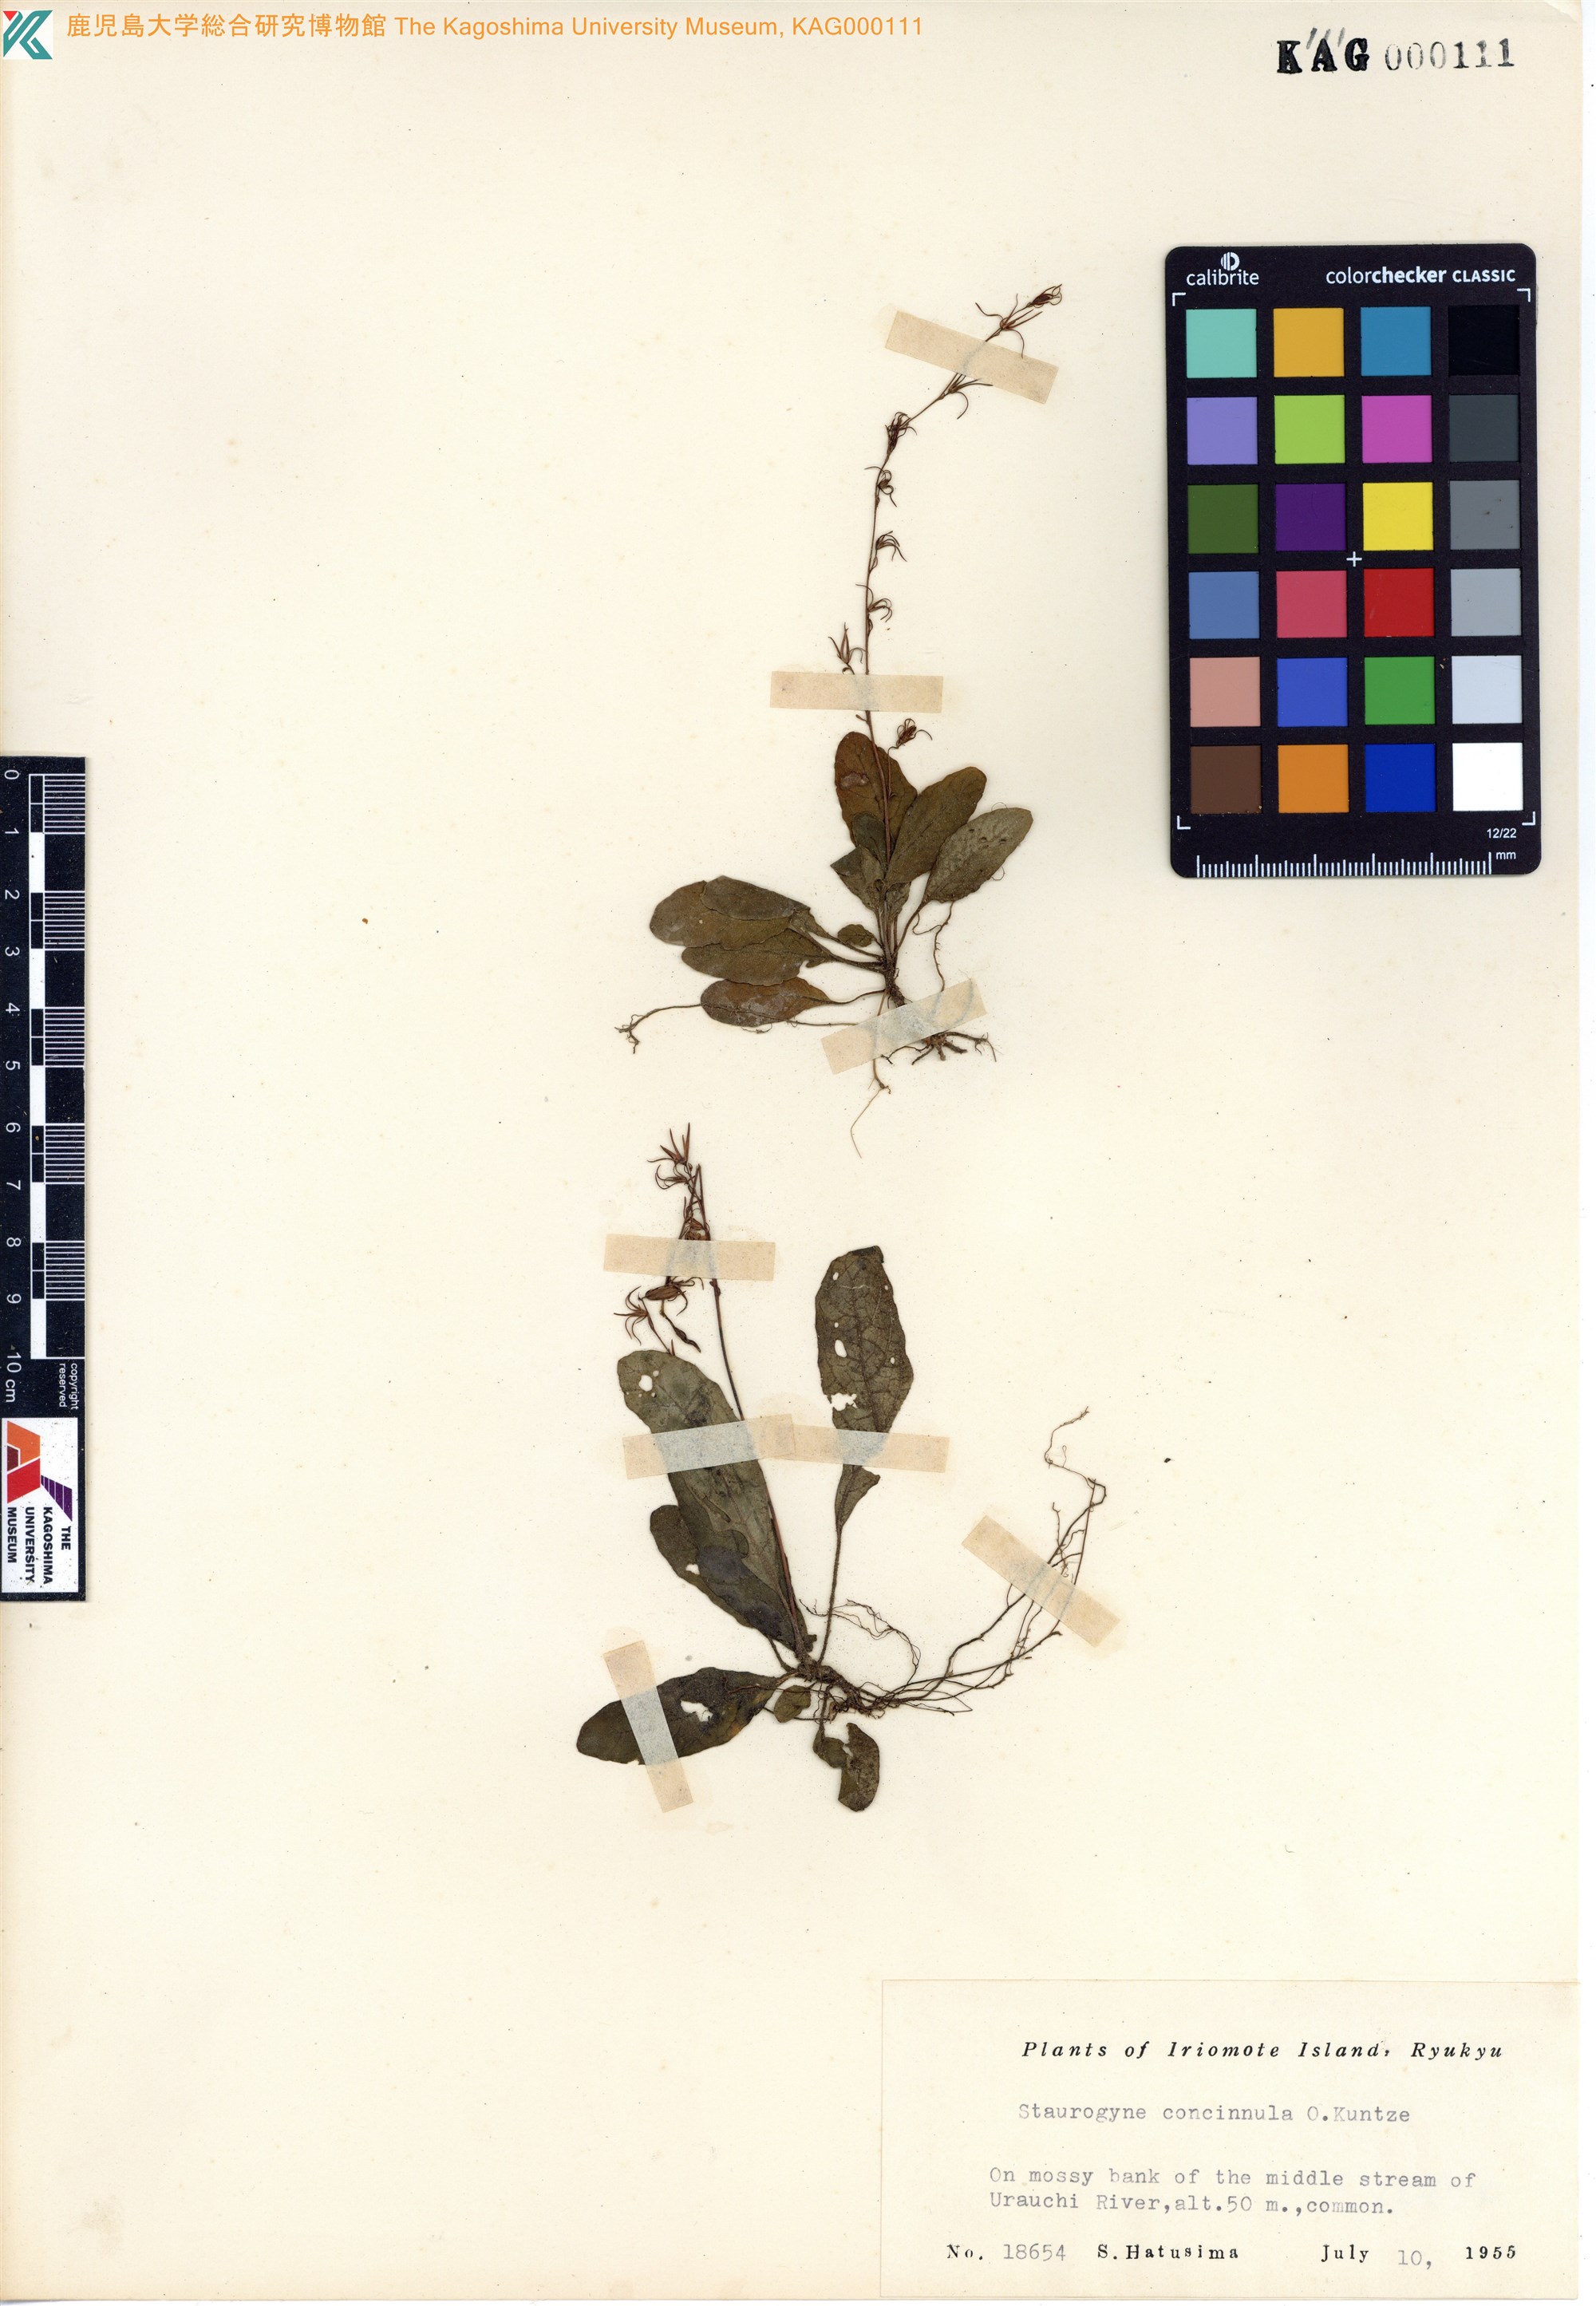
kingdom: Plantae
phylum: Tracheophyta
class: Magnoliopsida
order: Lamiales
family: Acanthaceae
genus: Staurogyne
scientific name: Staurogyne concinnula
